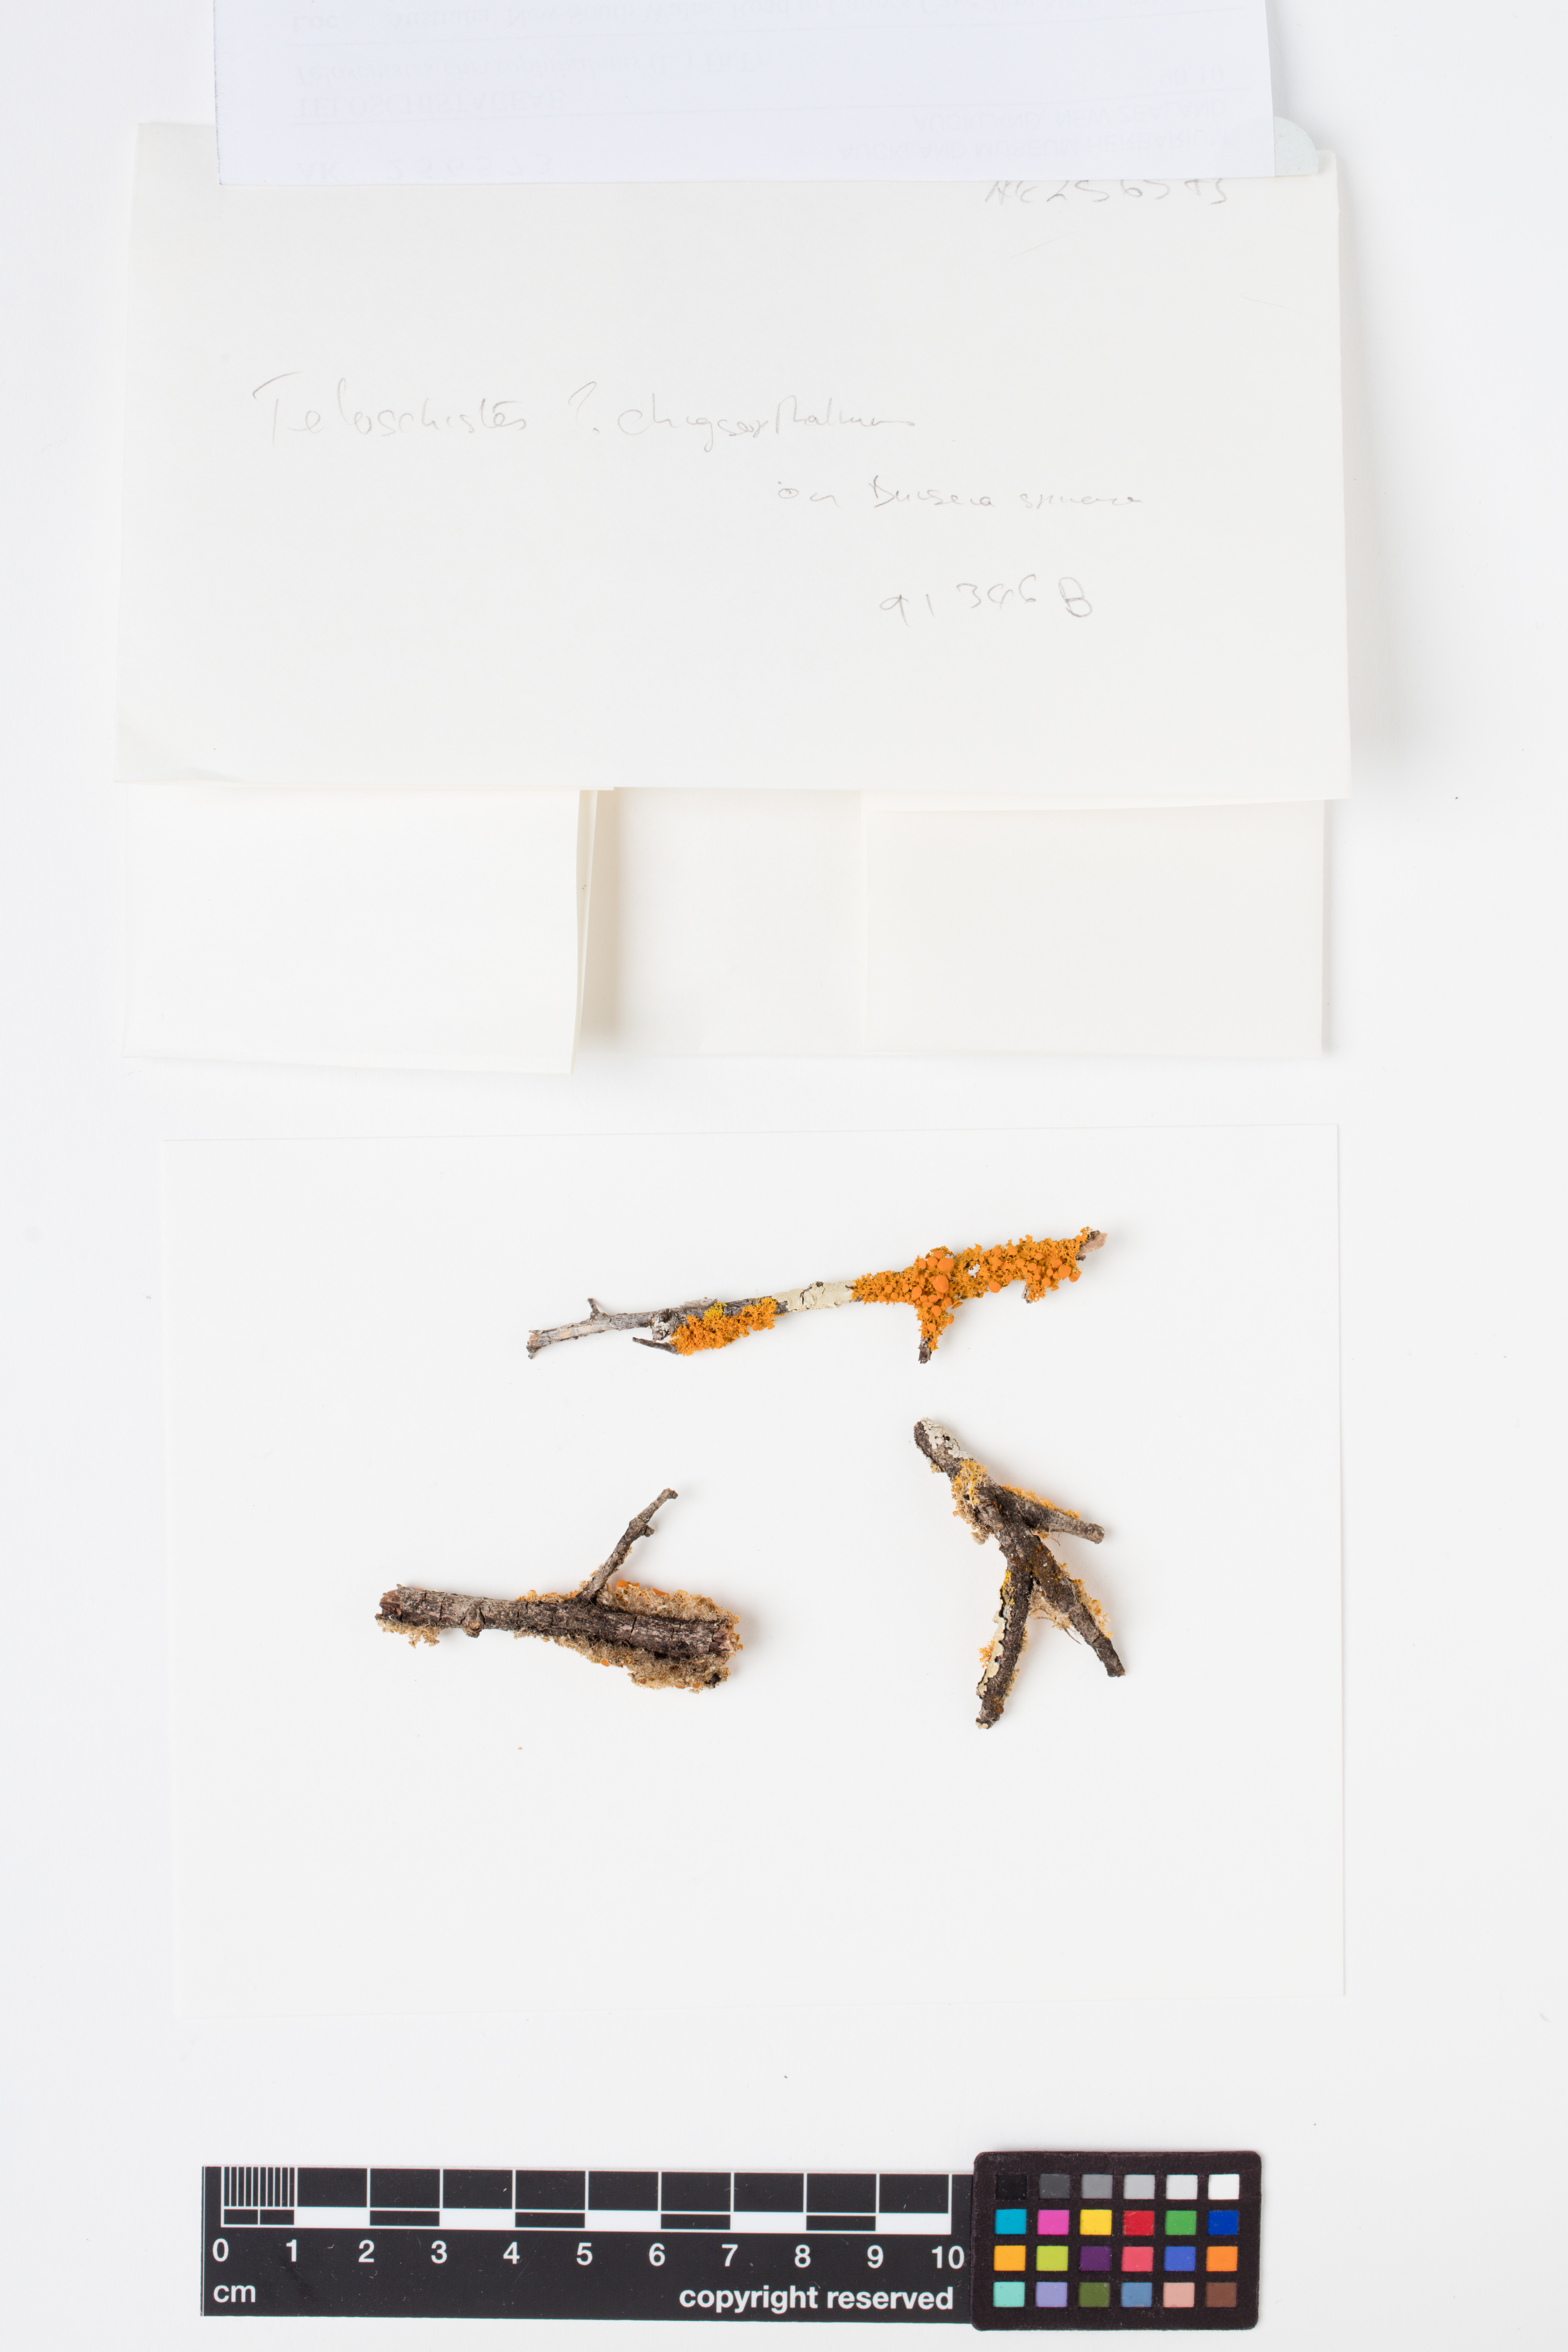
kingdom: Fungi
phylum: Ascomycota
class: Lecanoromycetes
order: Teloschistales
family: Teloschistaceae
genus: Niorma
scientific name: Niorma chrysophthalma
